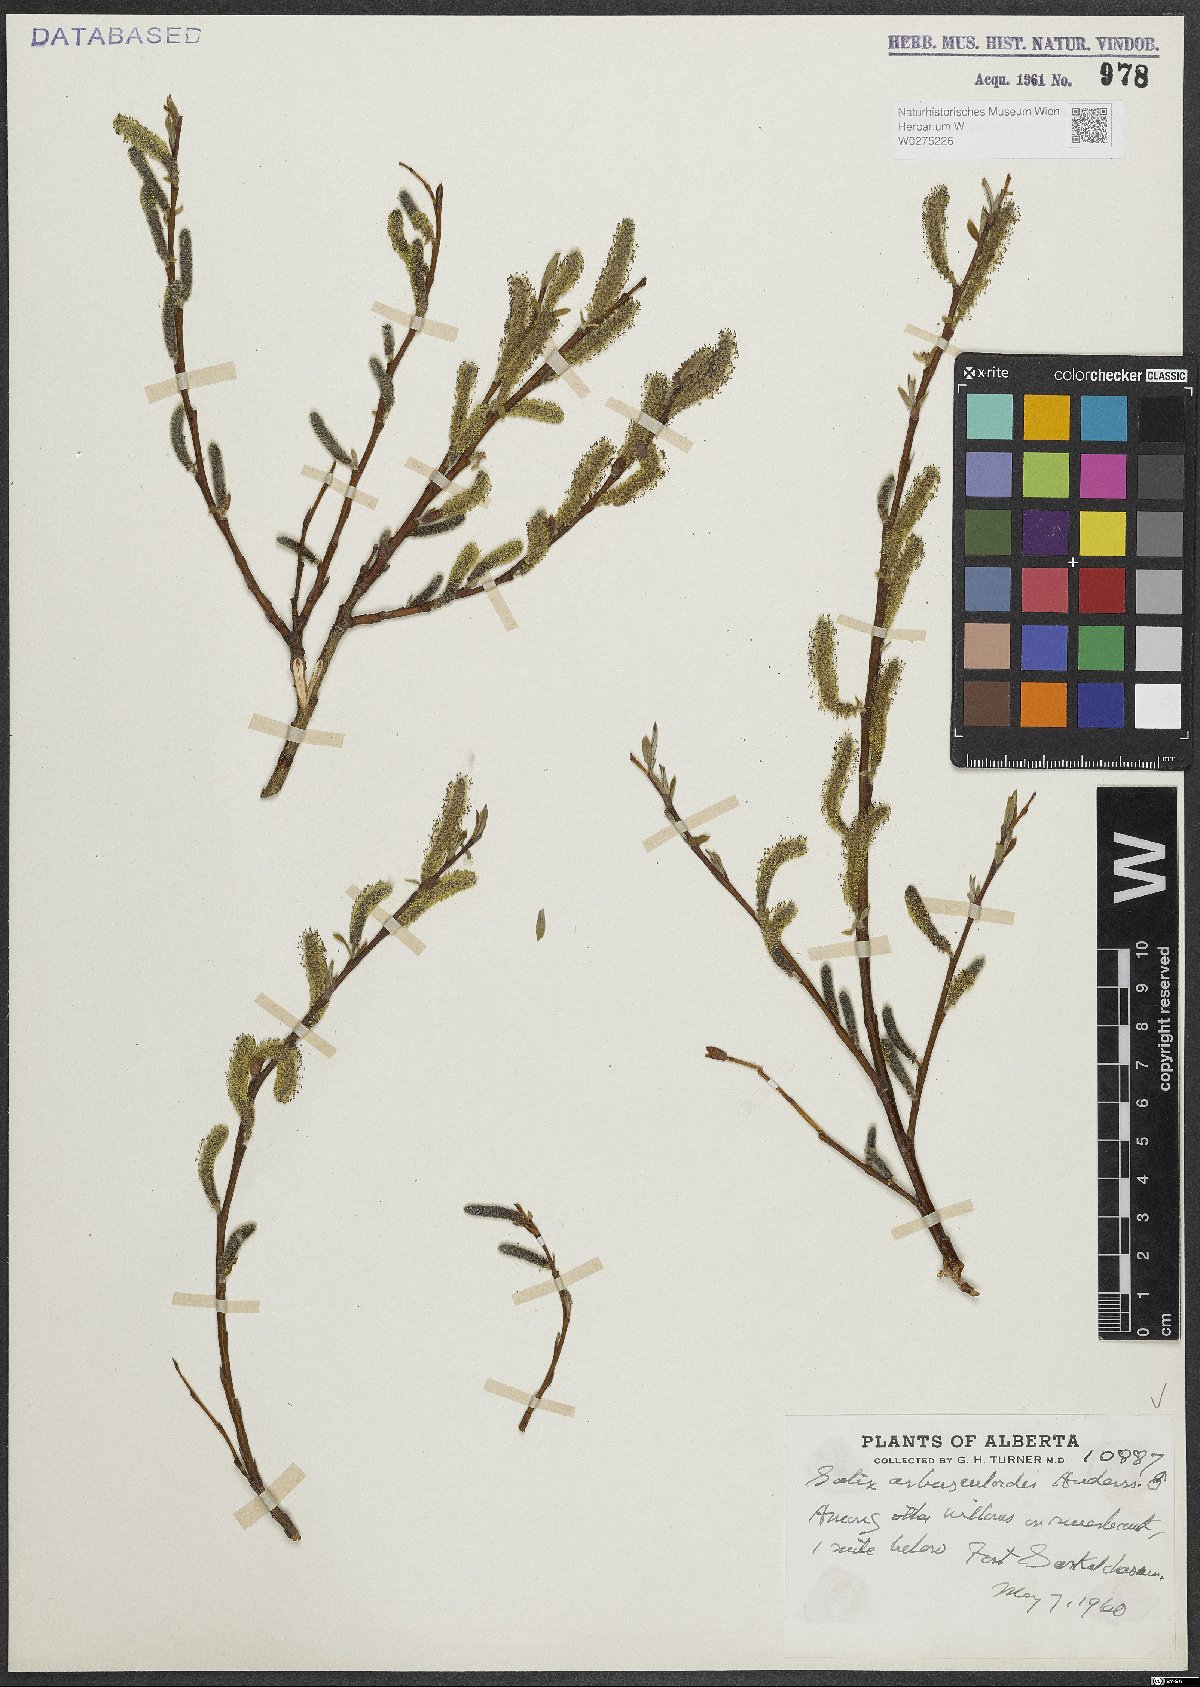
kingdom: Plantae
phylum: Tracheophyta
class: Magnoliopsida
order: Malpighiales
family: Salicaceae
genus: Salix
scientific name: Salix arbusculoides
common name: Little-tree willow
